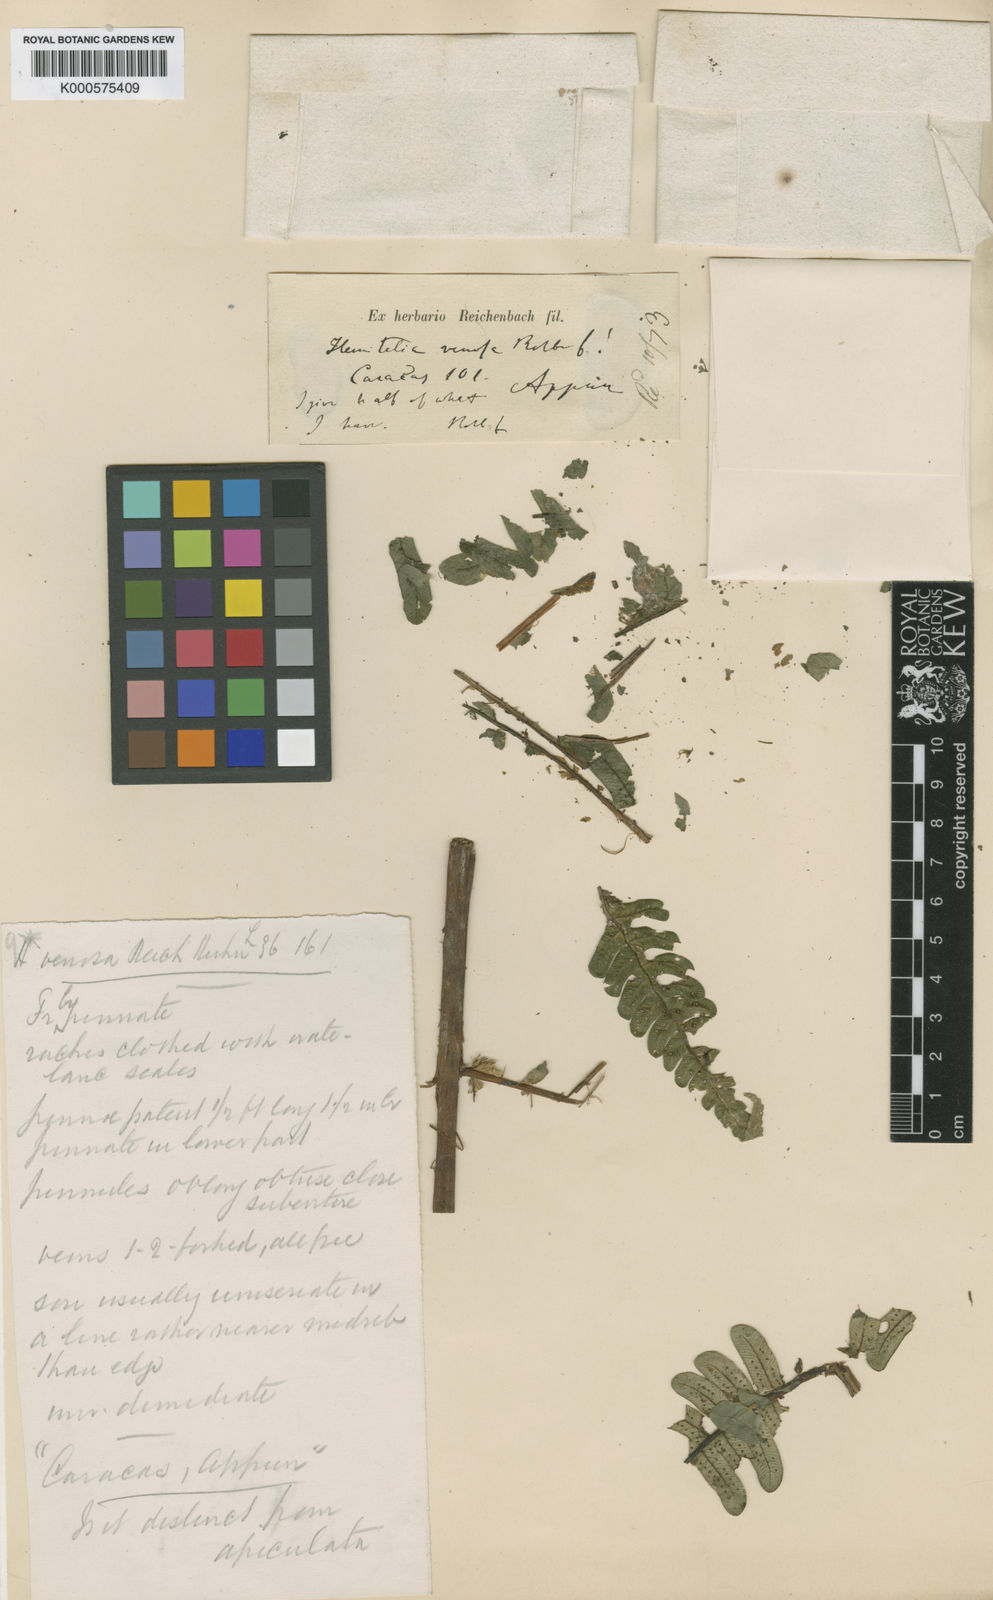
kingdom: Plantae
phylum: Tracheophyta
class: Polypodiopsida
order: Cyatheales
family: Cyatheaceae
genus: Cyathea
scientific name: Cyathea
